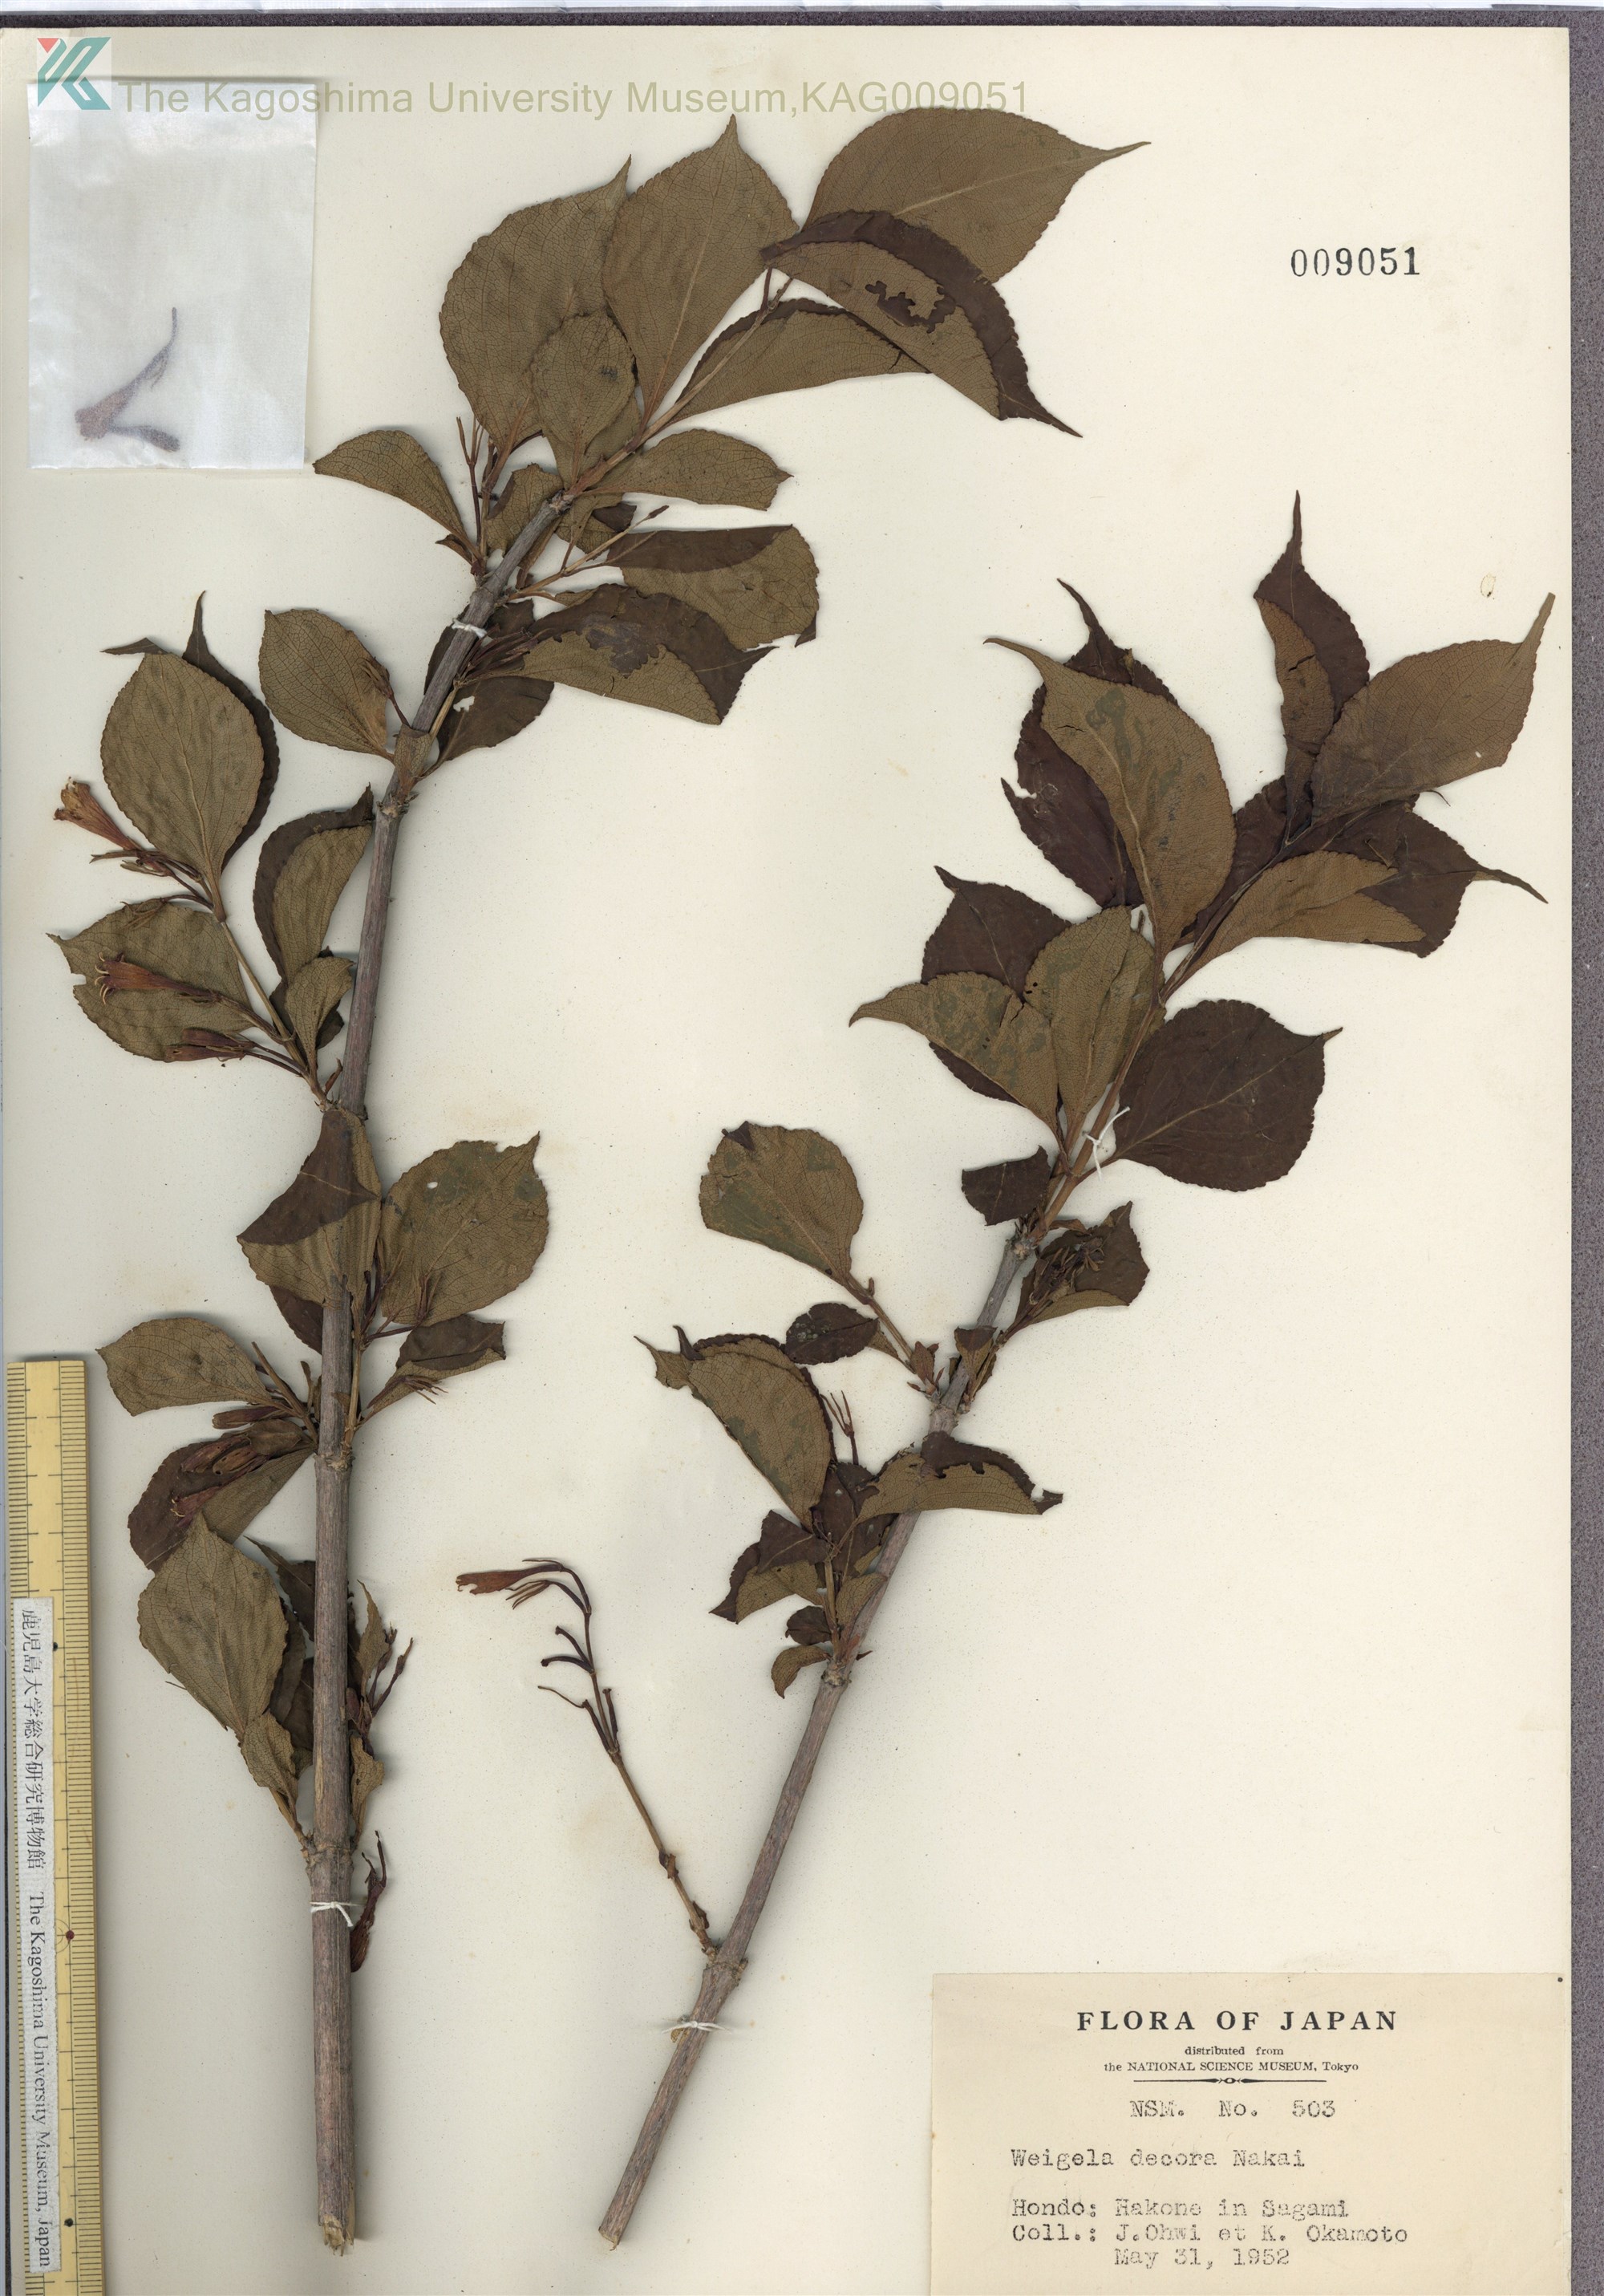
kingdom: Plantae
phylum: Tracheophyta
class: Magnoliopsida
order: Dipsacales
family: Caprifoliaceae
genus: Weigela
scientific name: Weigela decora
